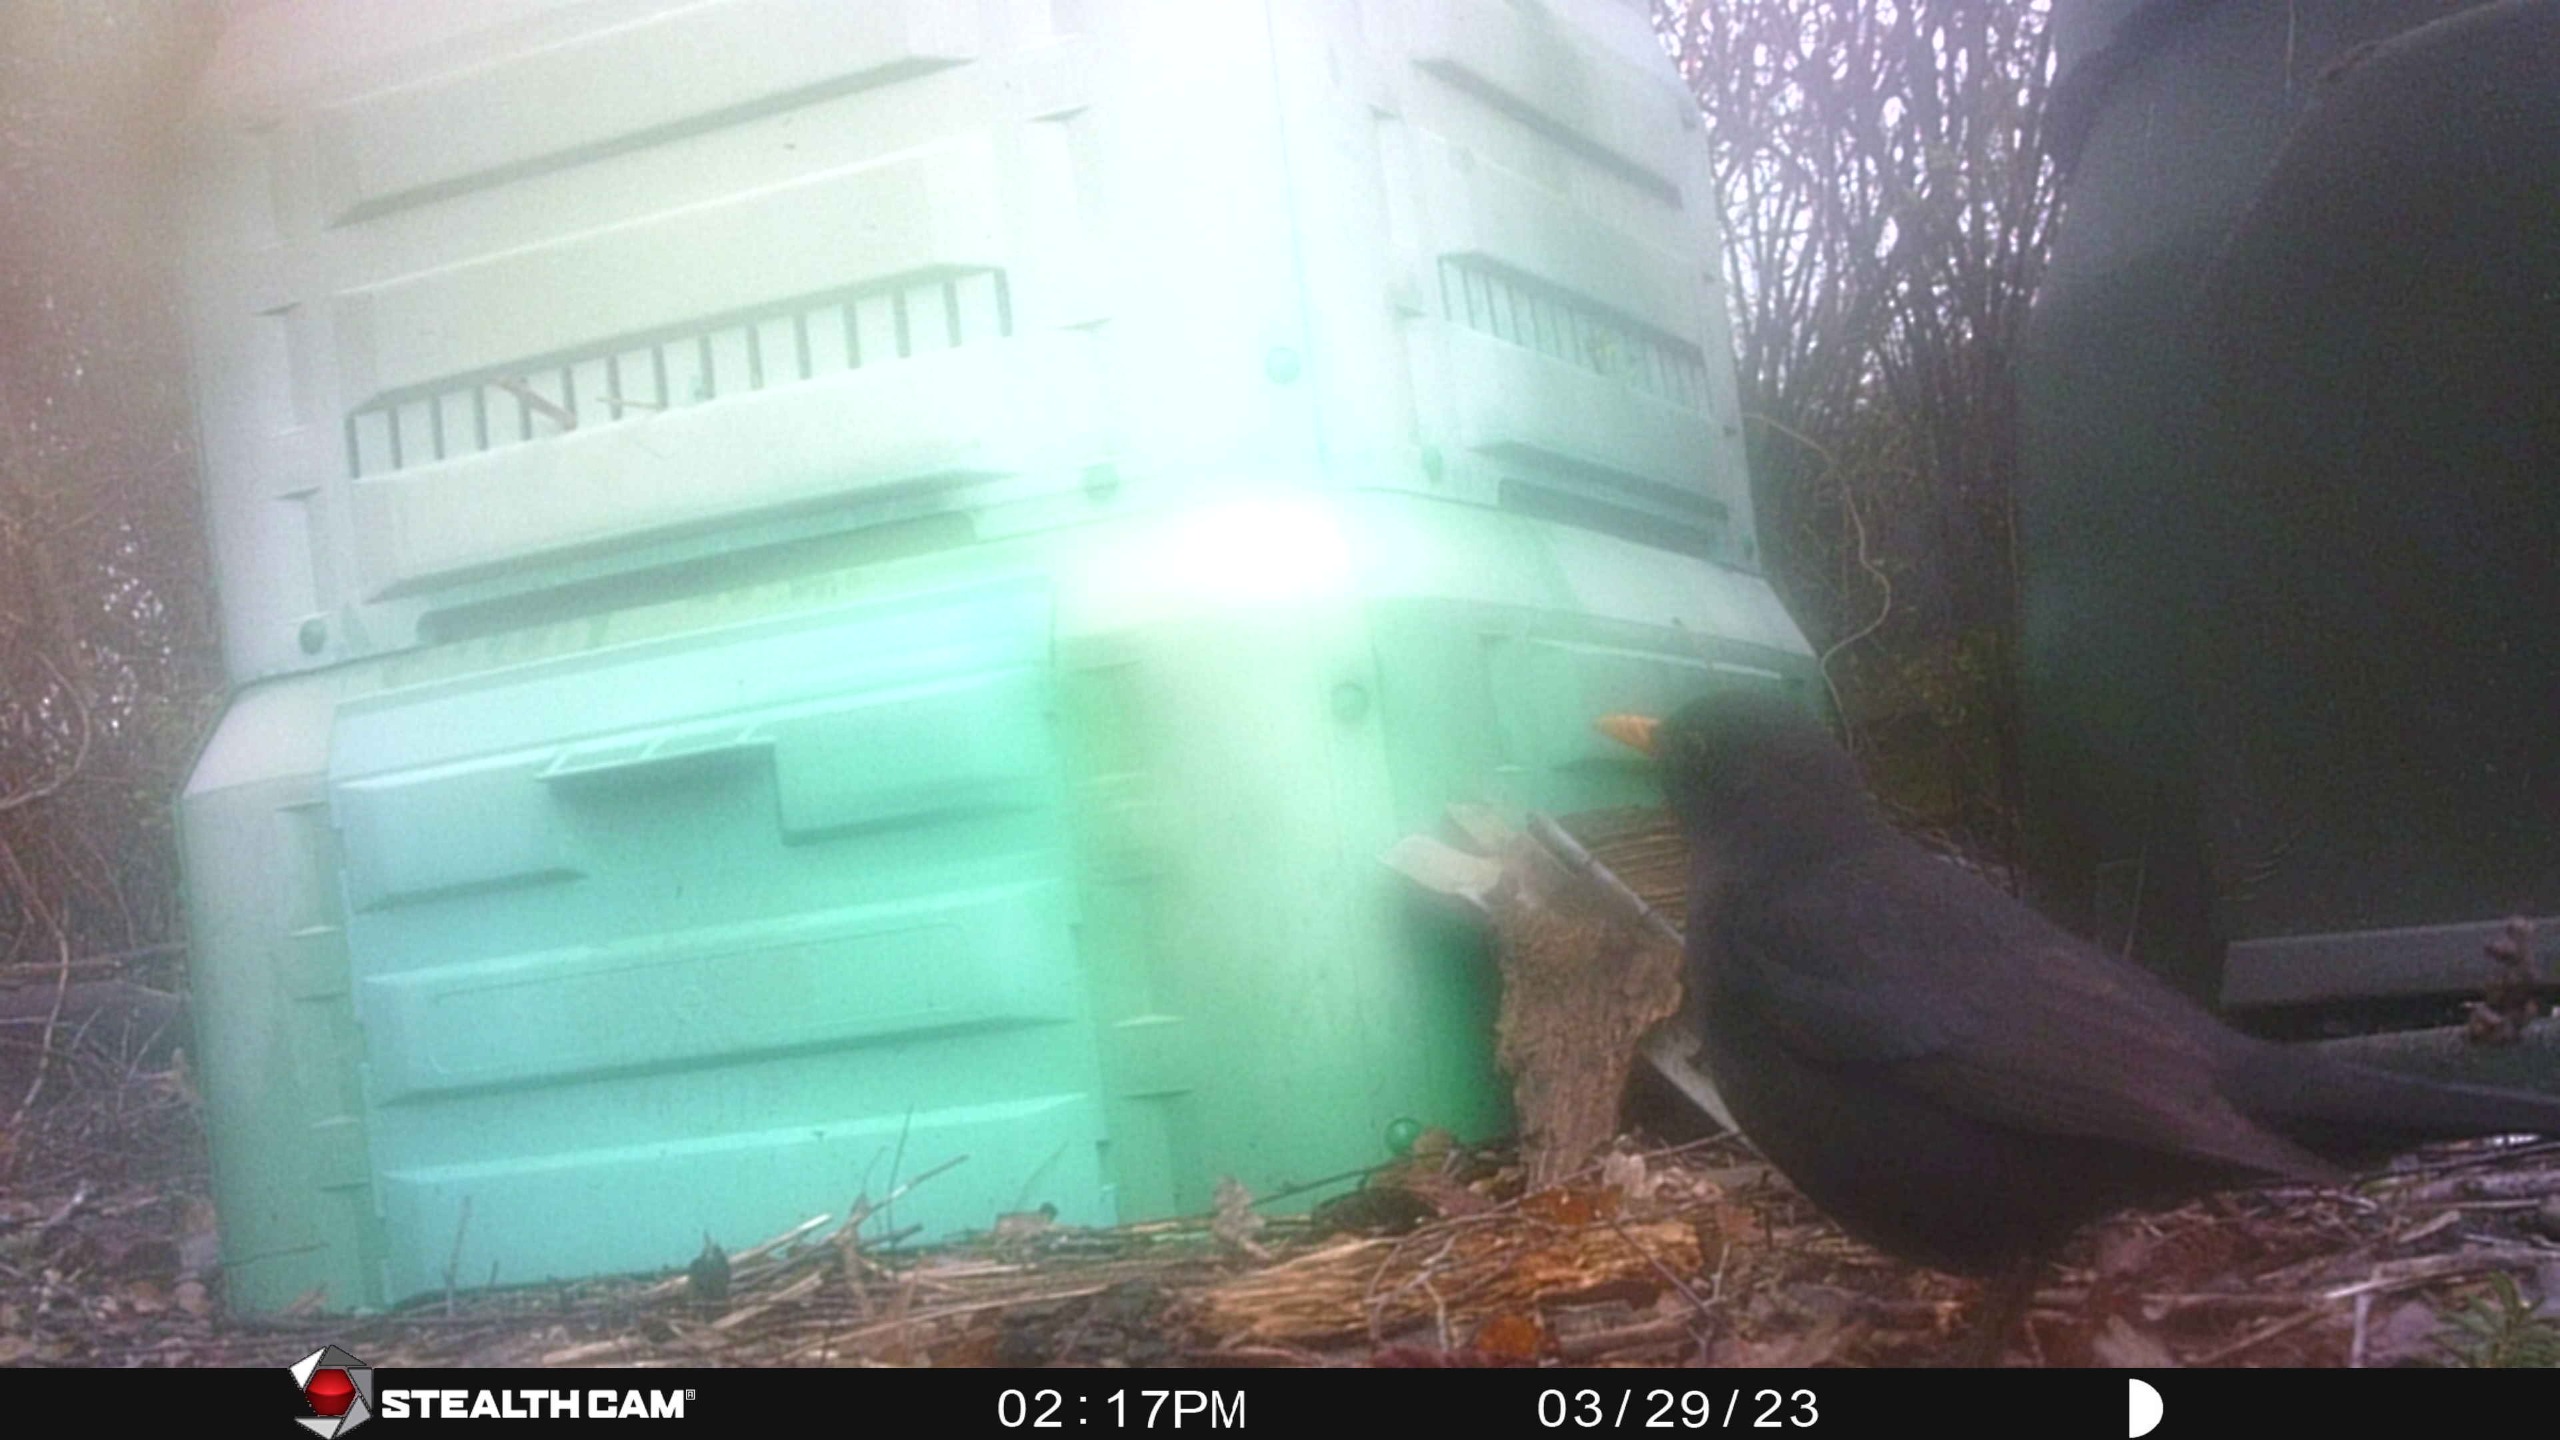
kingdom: Animalia
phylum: Chordata
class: Aves
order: Passeriformes
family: Turdidae
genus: Turdus
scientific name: Turdus merula
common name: Solsort
